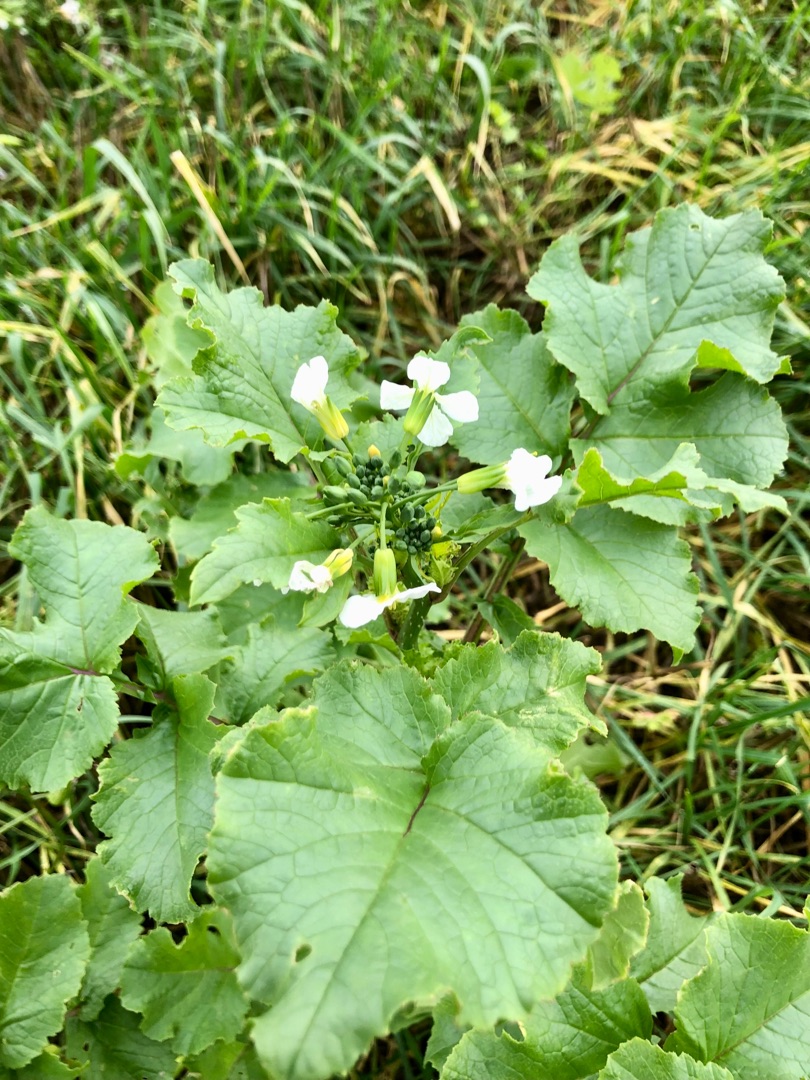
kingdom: Plantae
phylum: Tracheophyta
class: Magnoliopsida
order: Brassicales
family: Brassicaceae
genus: Raphanus
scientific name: Raphanus sativus
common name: Olie-ræddike
